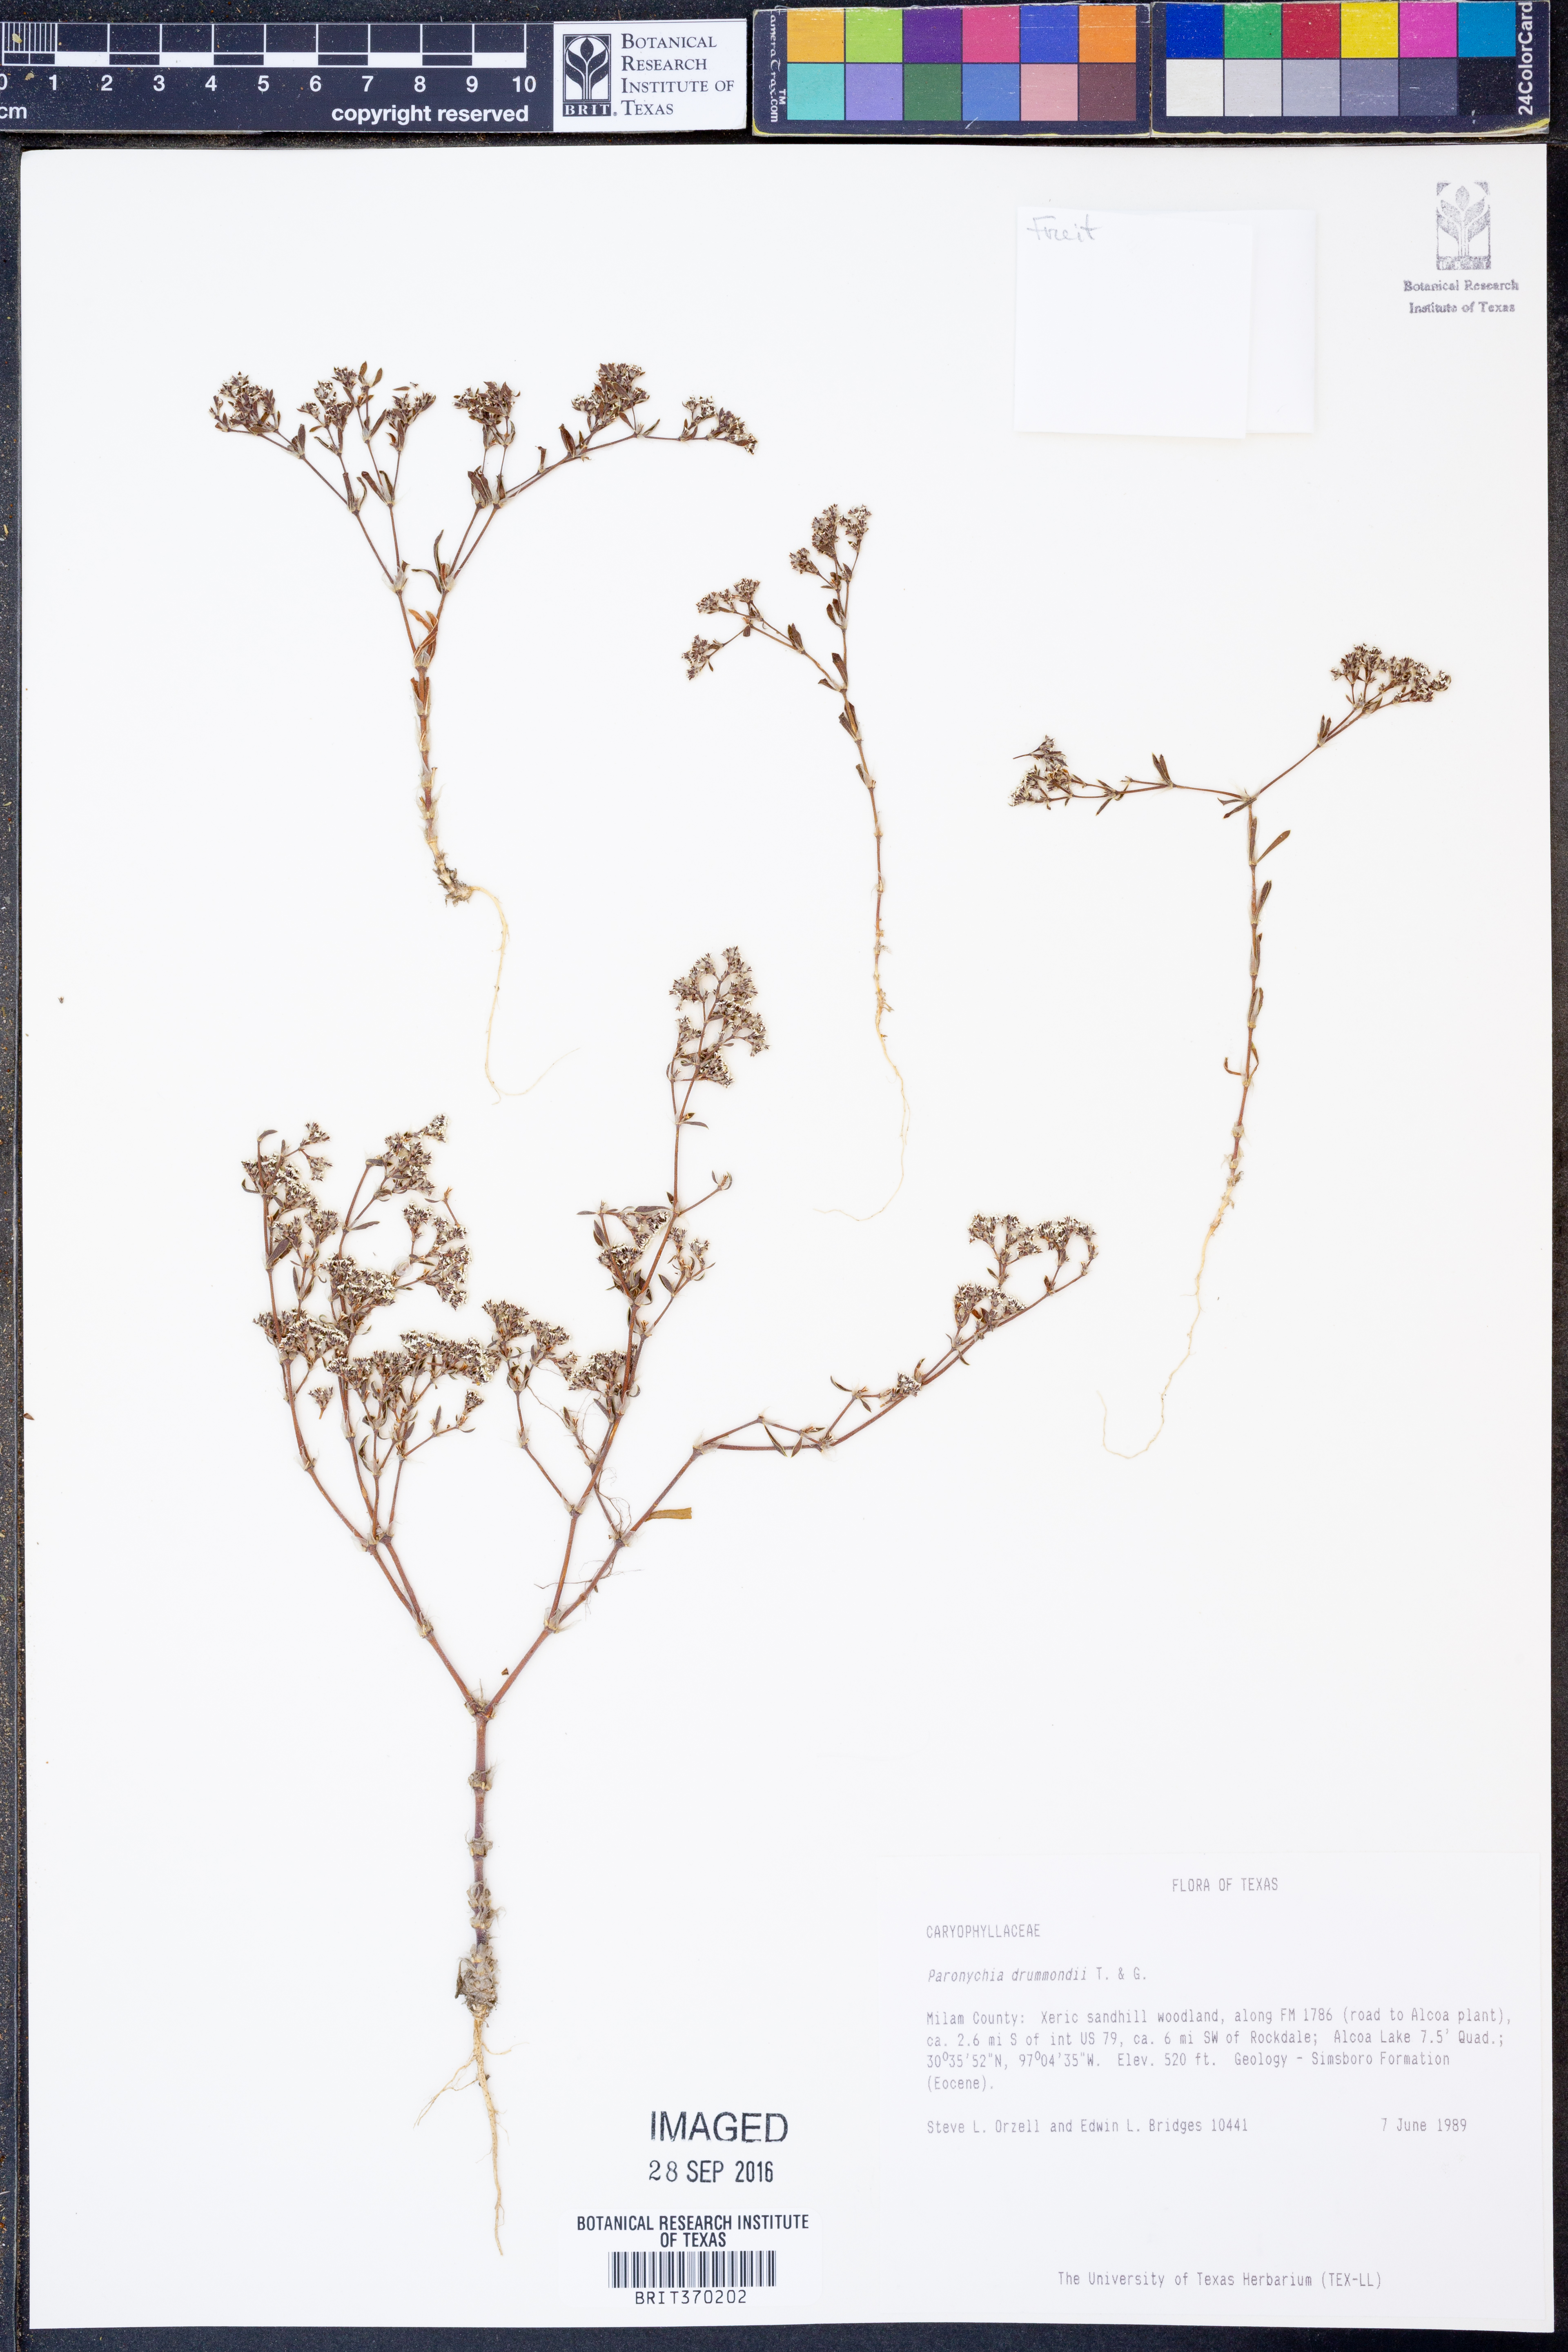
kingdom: Plantae
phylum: Tracheophyta
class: Magnoliopsida
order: Caryophyllales
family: Caryophyllaceae
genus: Paronychia
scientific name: Paronychia drummondii
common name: Drummond's nailwort
